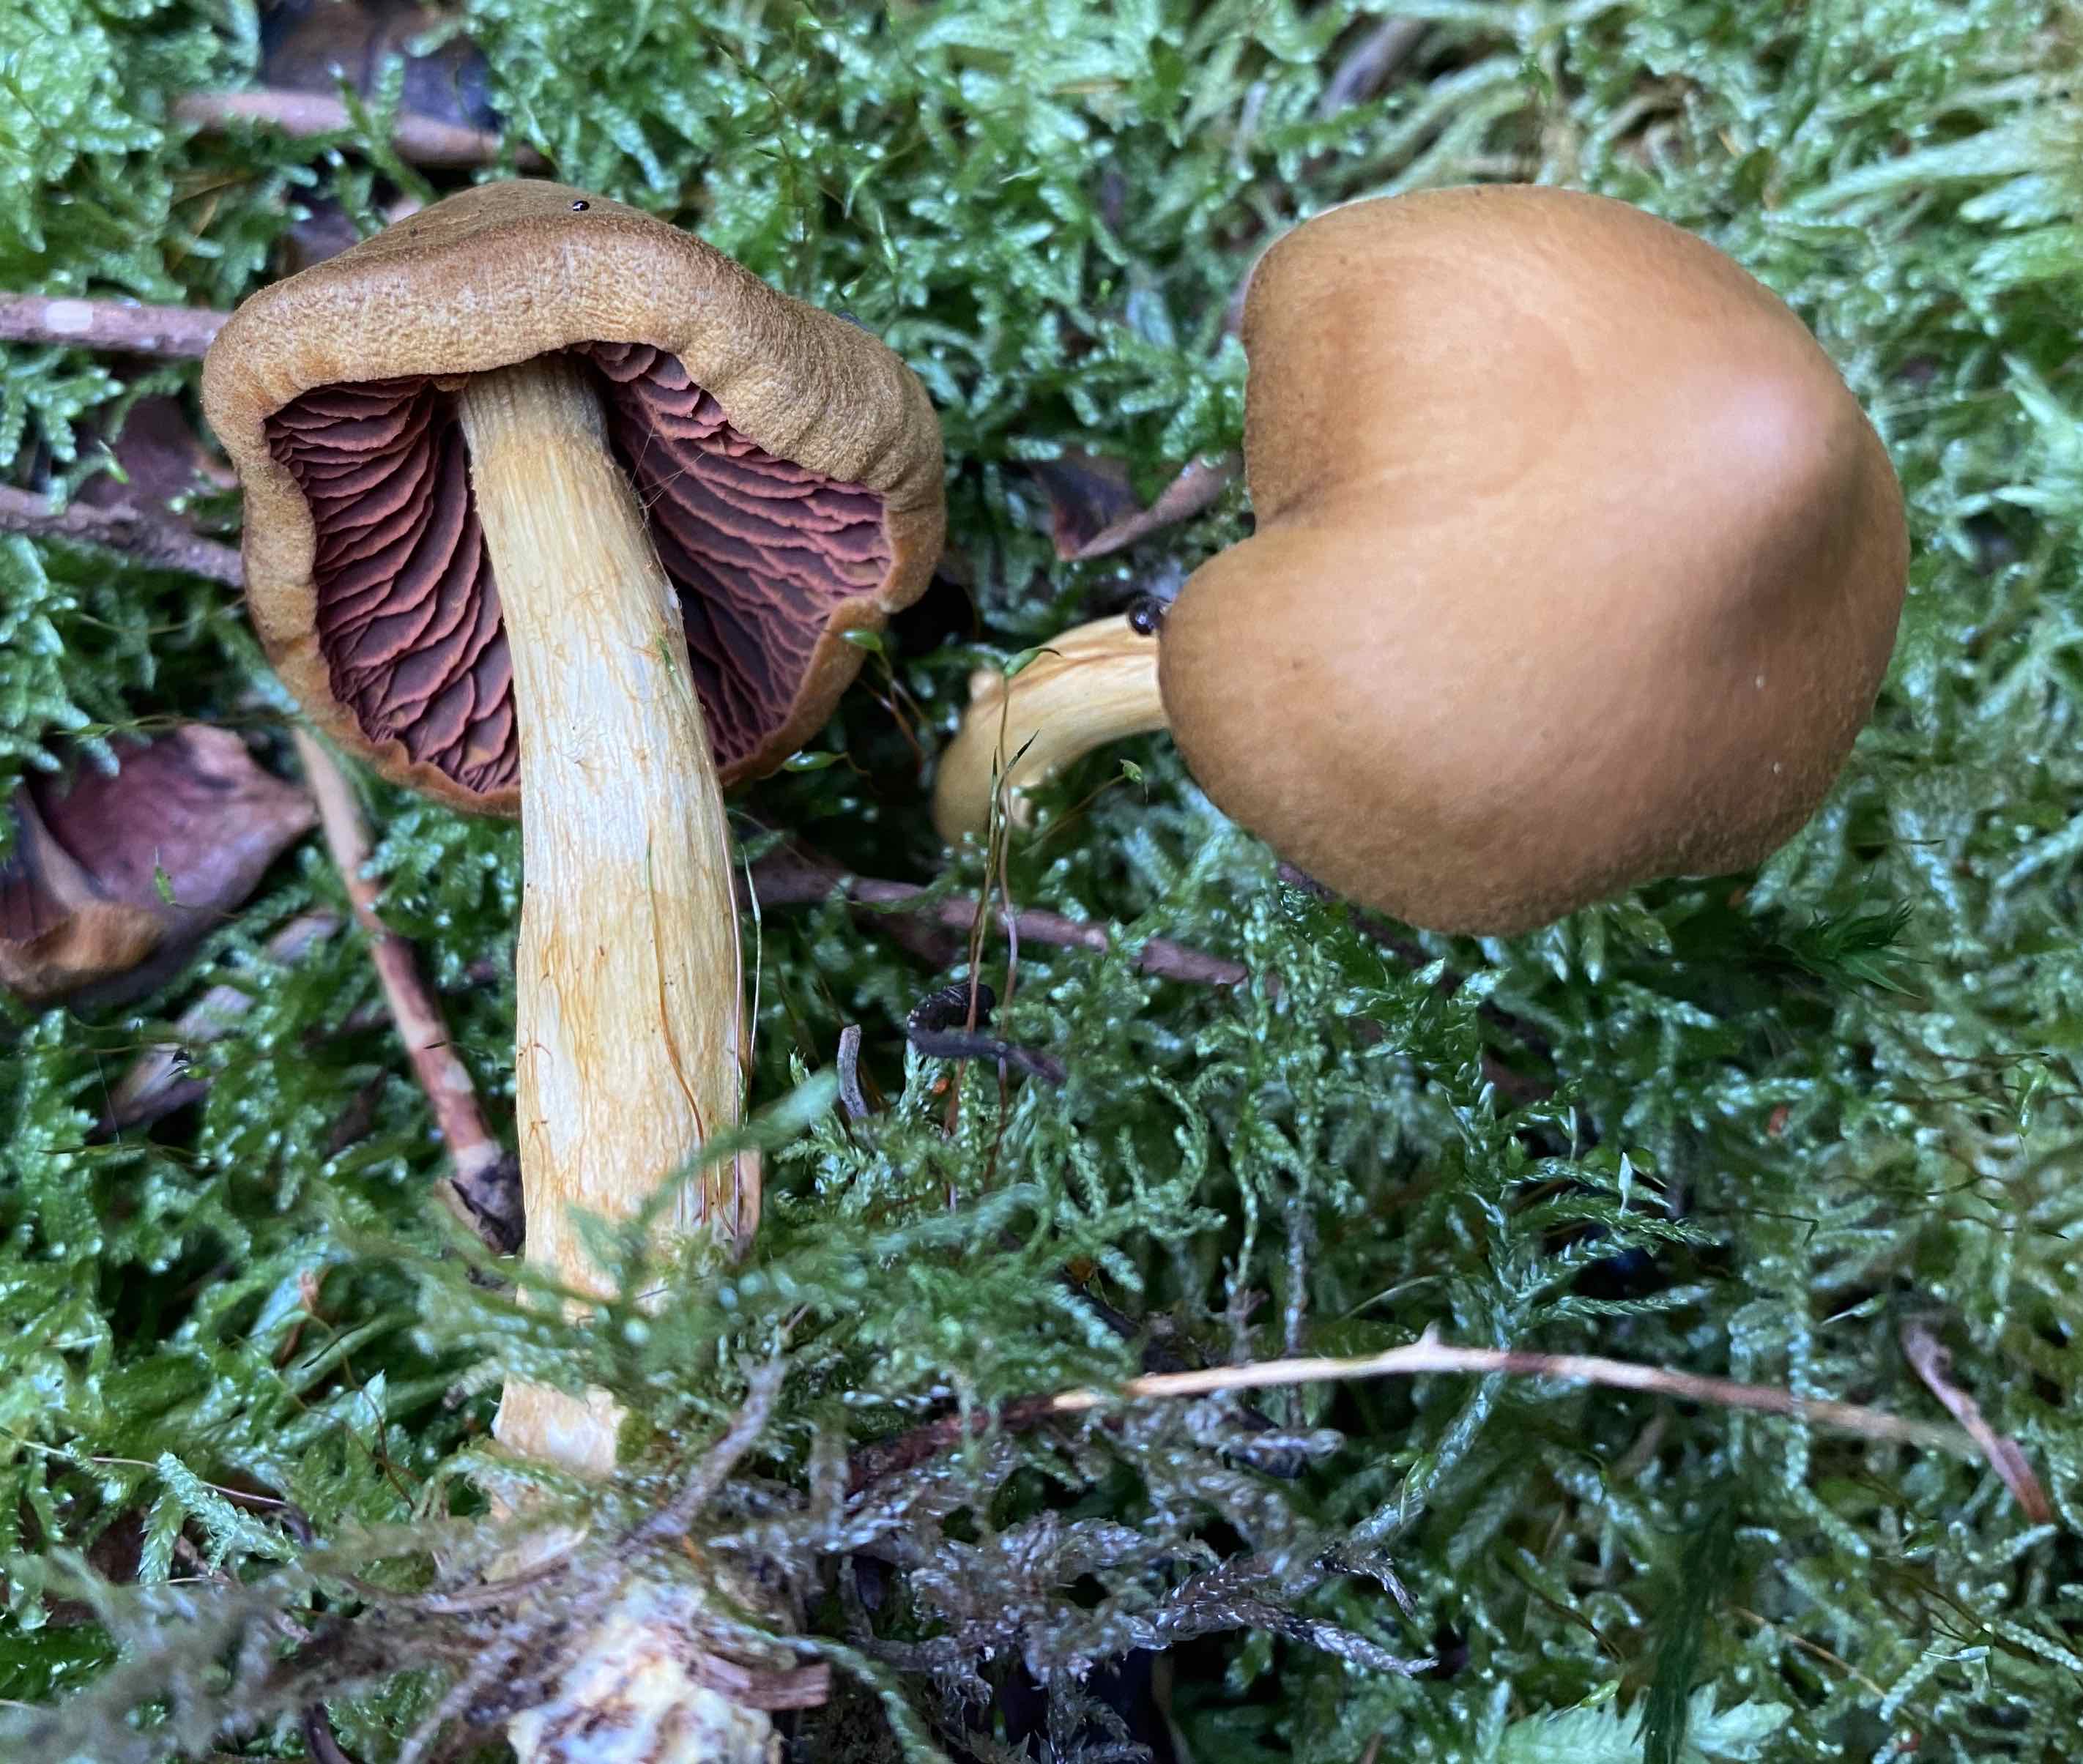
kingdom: Fungi
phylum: Basidiomycota
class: Agaricomycetes
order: Agaricales
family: Cortinariaceae
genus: Cortinarius
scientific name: Cortinarius
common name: cinnoberbladet slørhat
